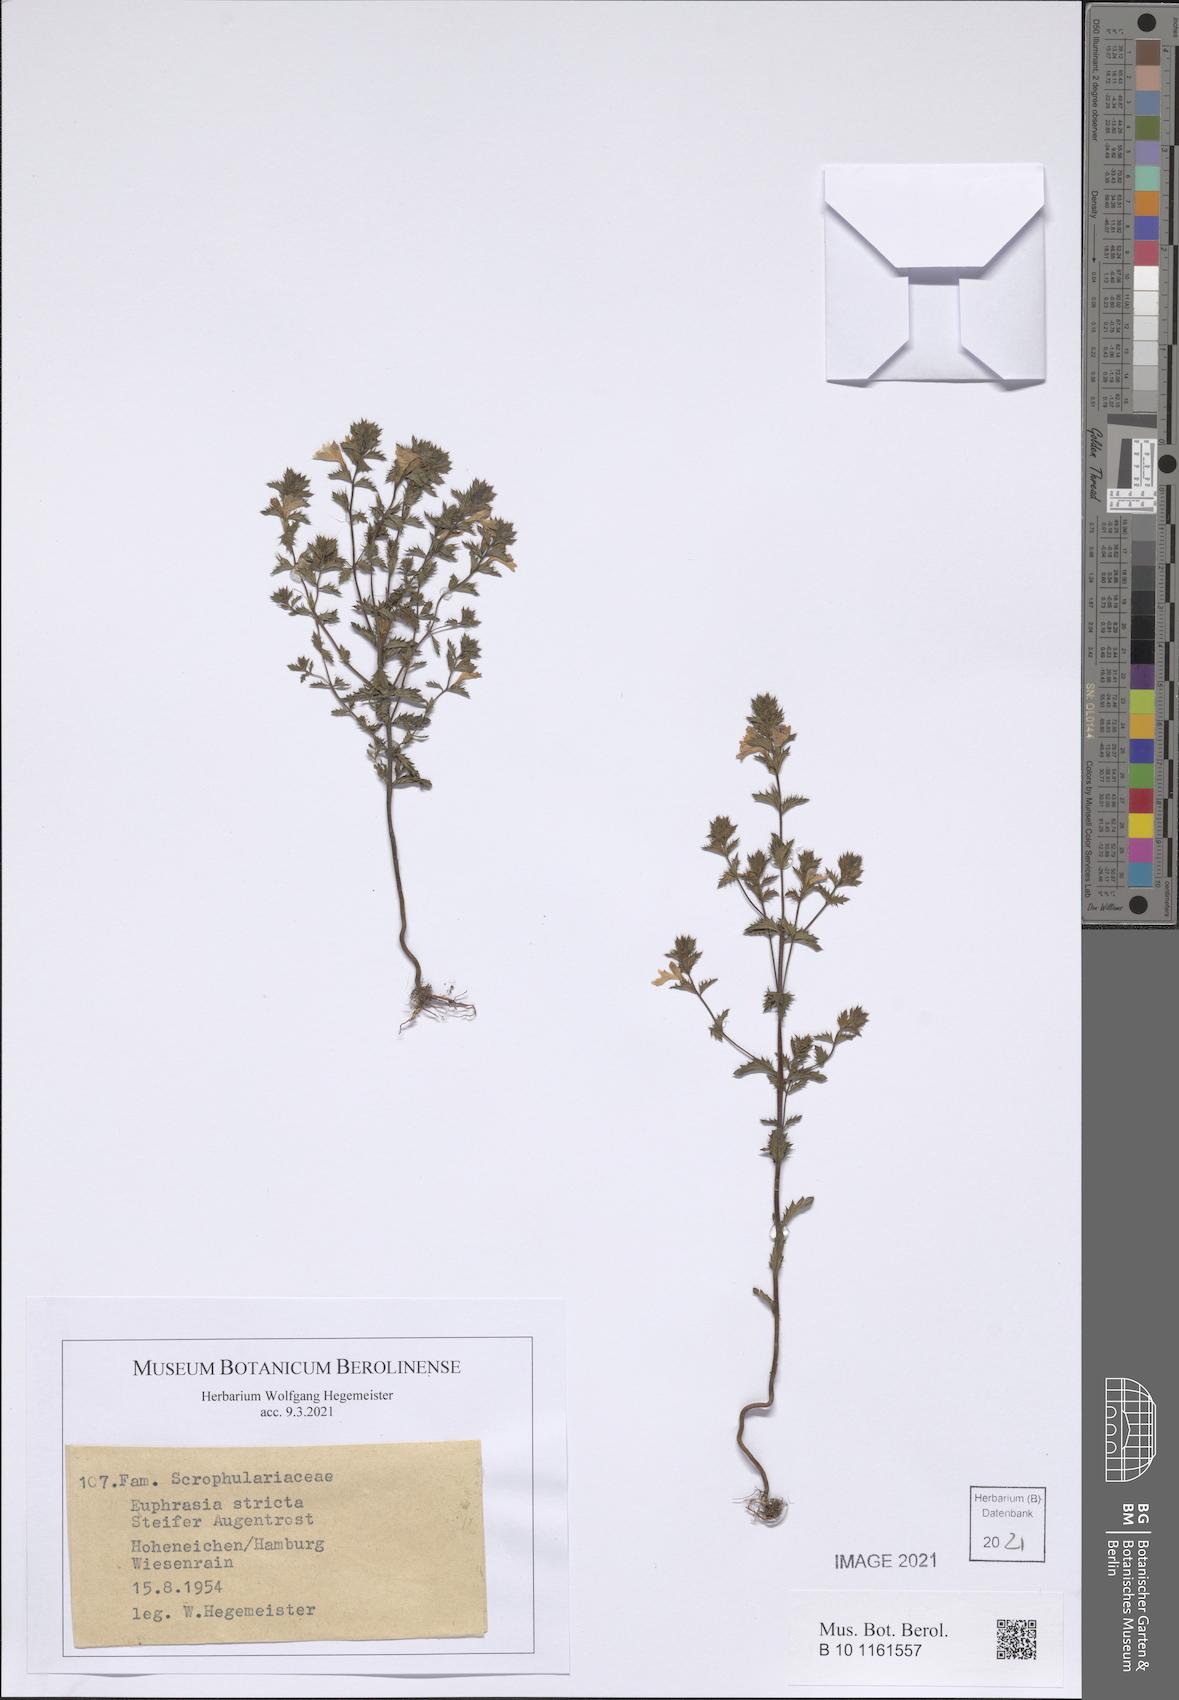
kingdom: Plantae
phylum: Tracheophyta
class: Magnoliopsida
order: Lamiales
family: Orobanchaceae
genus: Euphrasia
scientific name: Euphrasia stricta
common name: Drug eyebright
